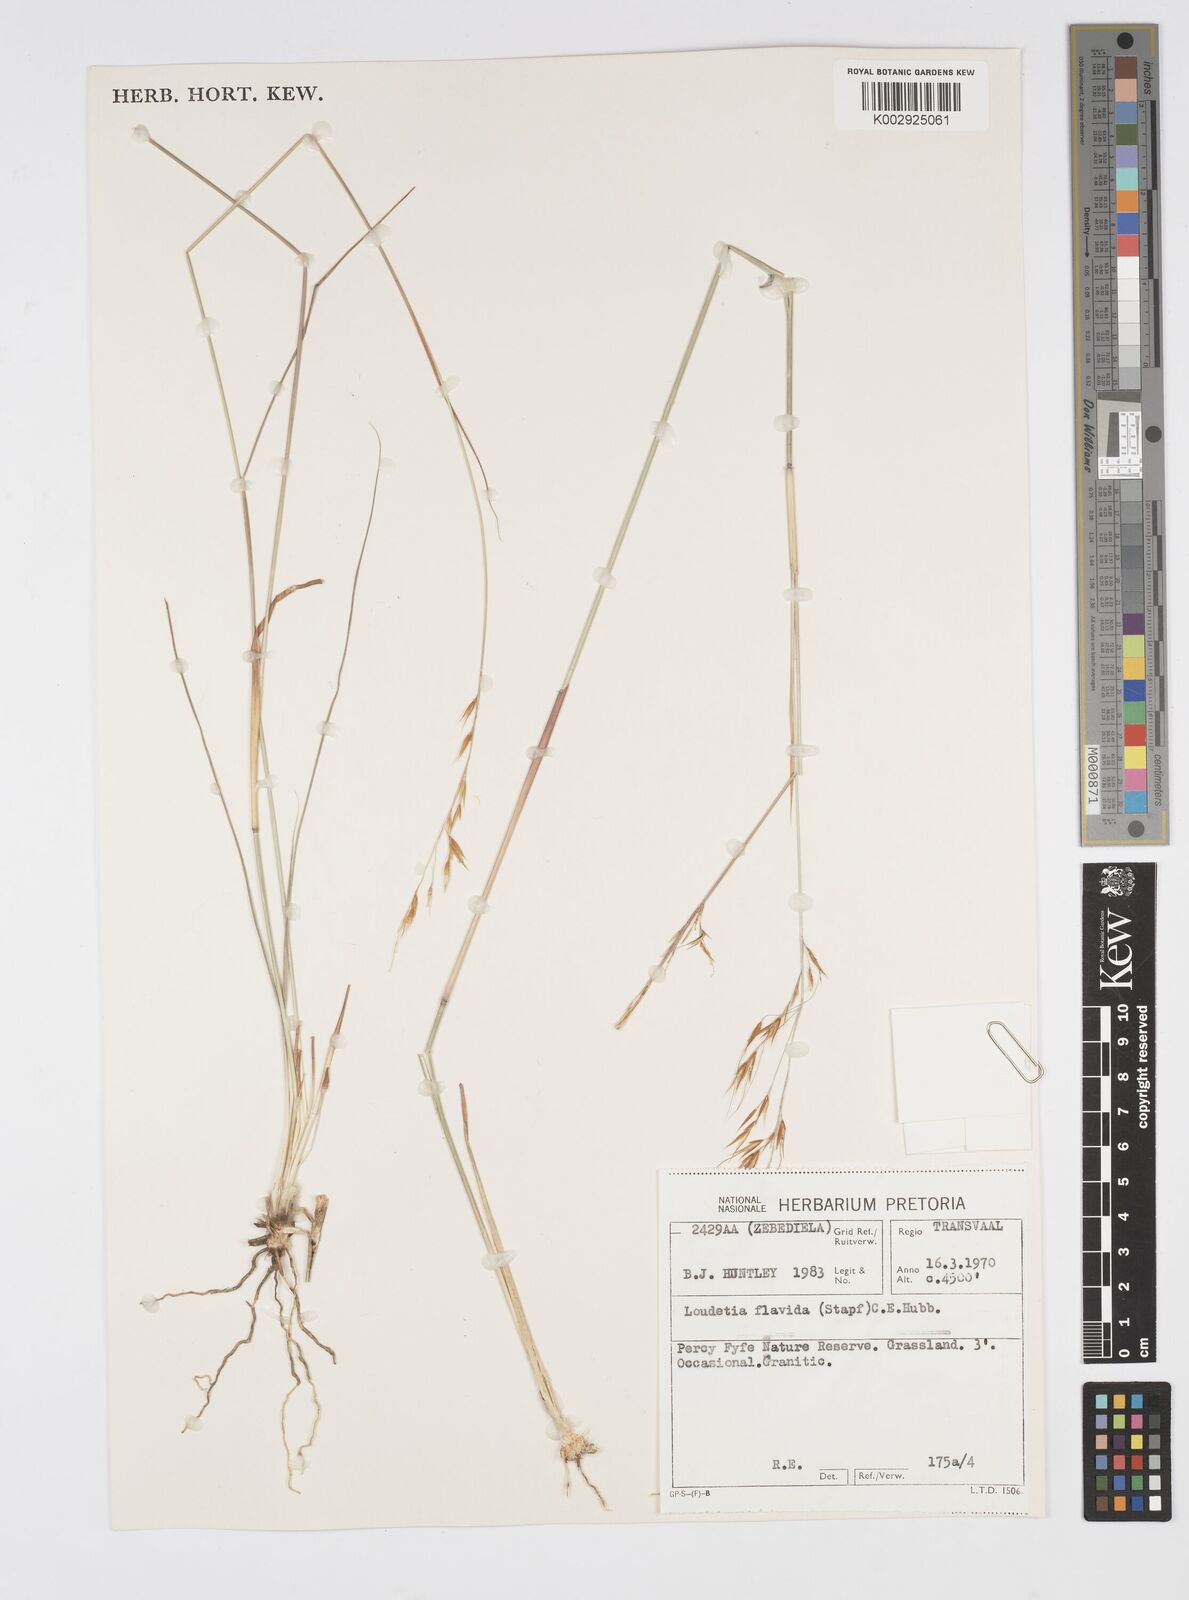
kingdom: Plantae
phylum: Tracheophyta
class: Liliopsida
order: Poales
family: Poaceae
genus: Loudetia
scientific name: Loudetia flavida
